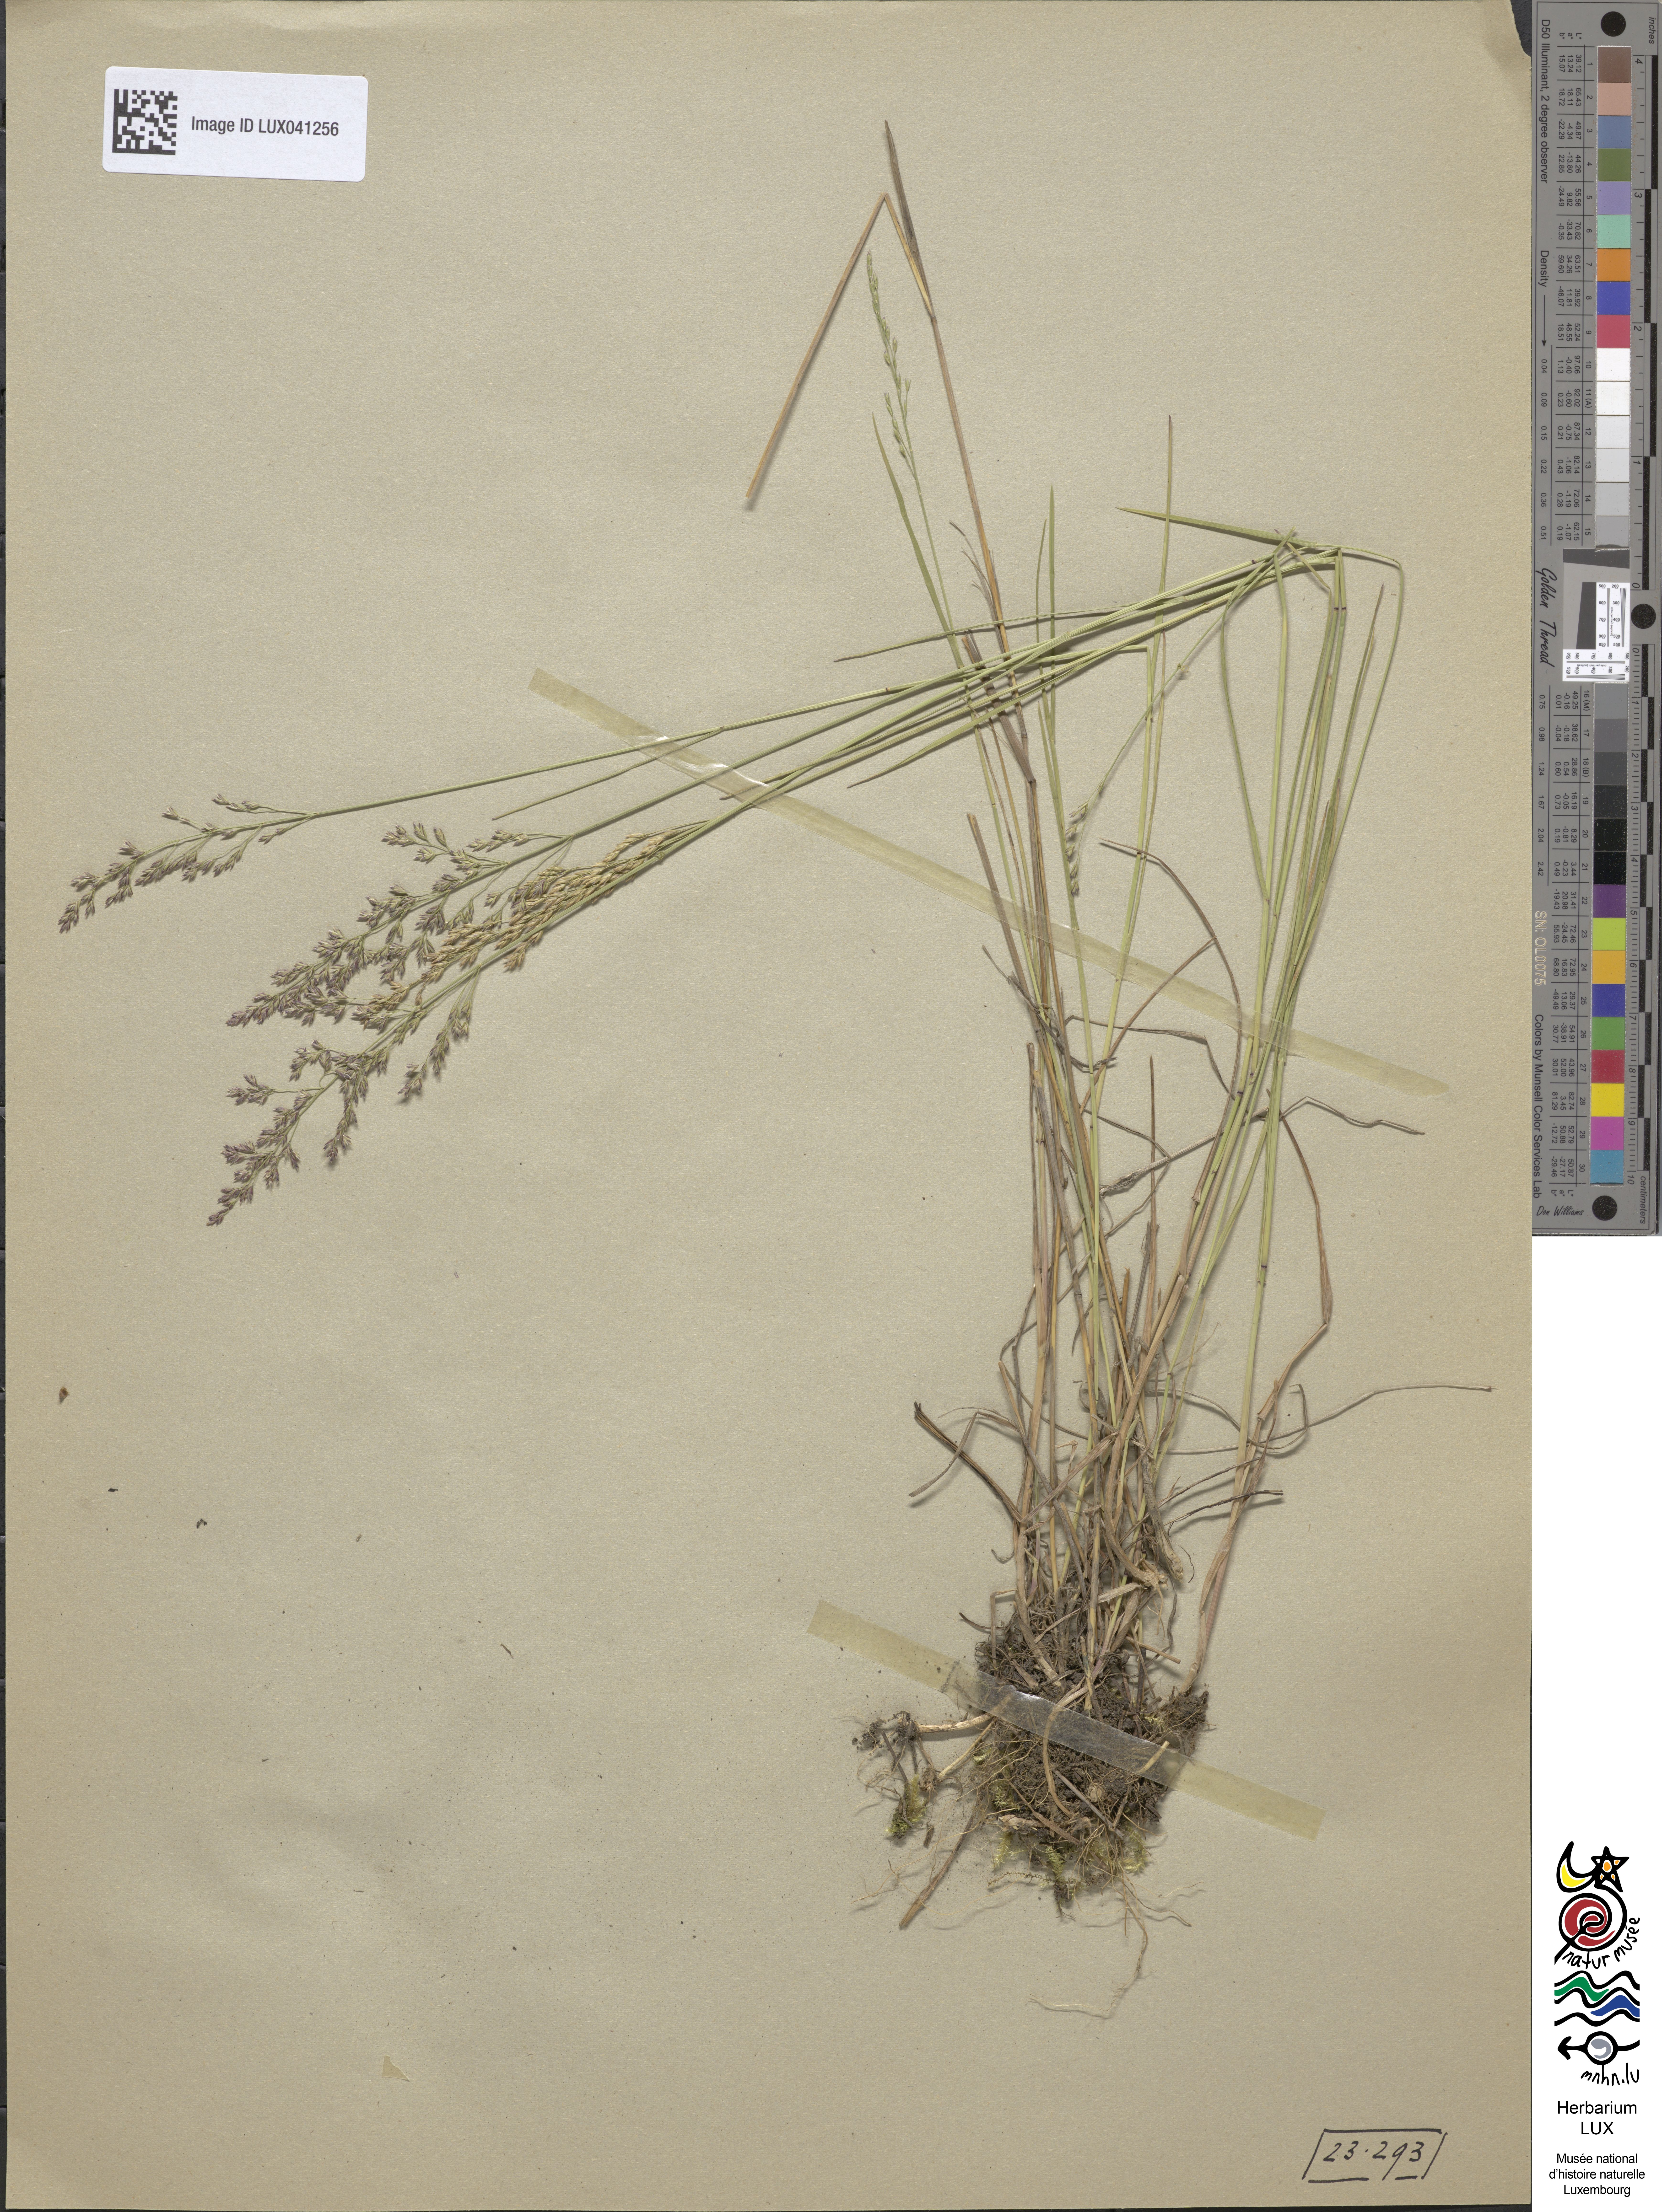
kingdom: Plantae
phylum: Tracheophyta
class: Liliopsida
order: Poales
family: Poaceae
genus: Poa
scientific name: Poa nemoralis
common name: Wood bluegrass
